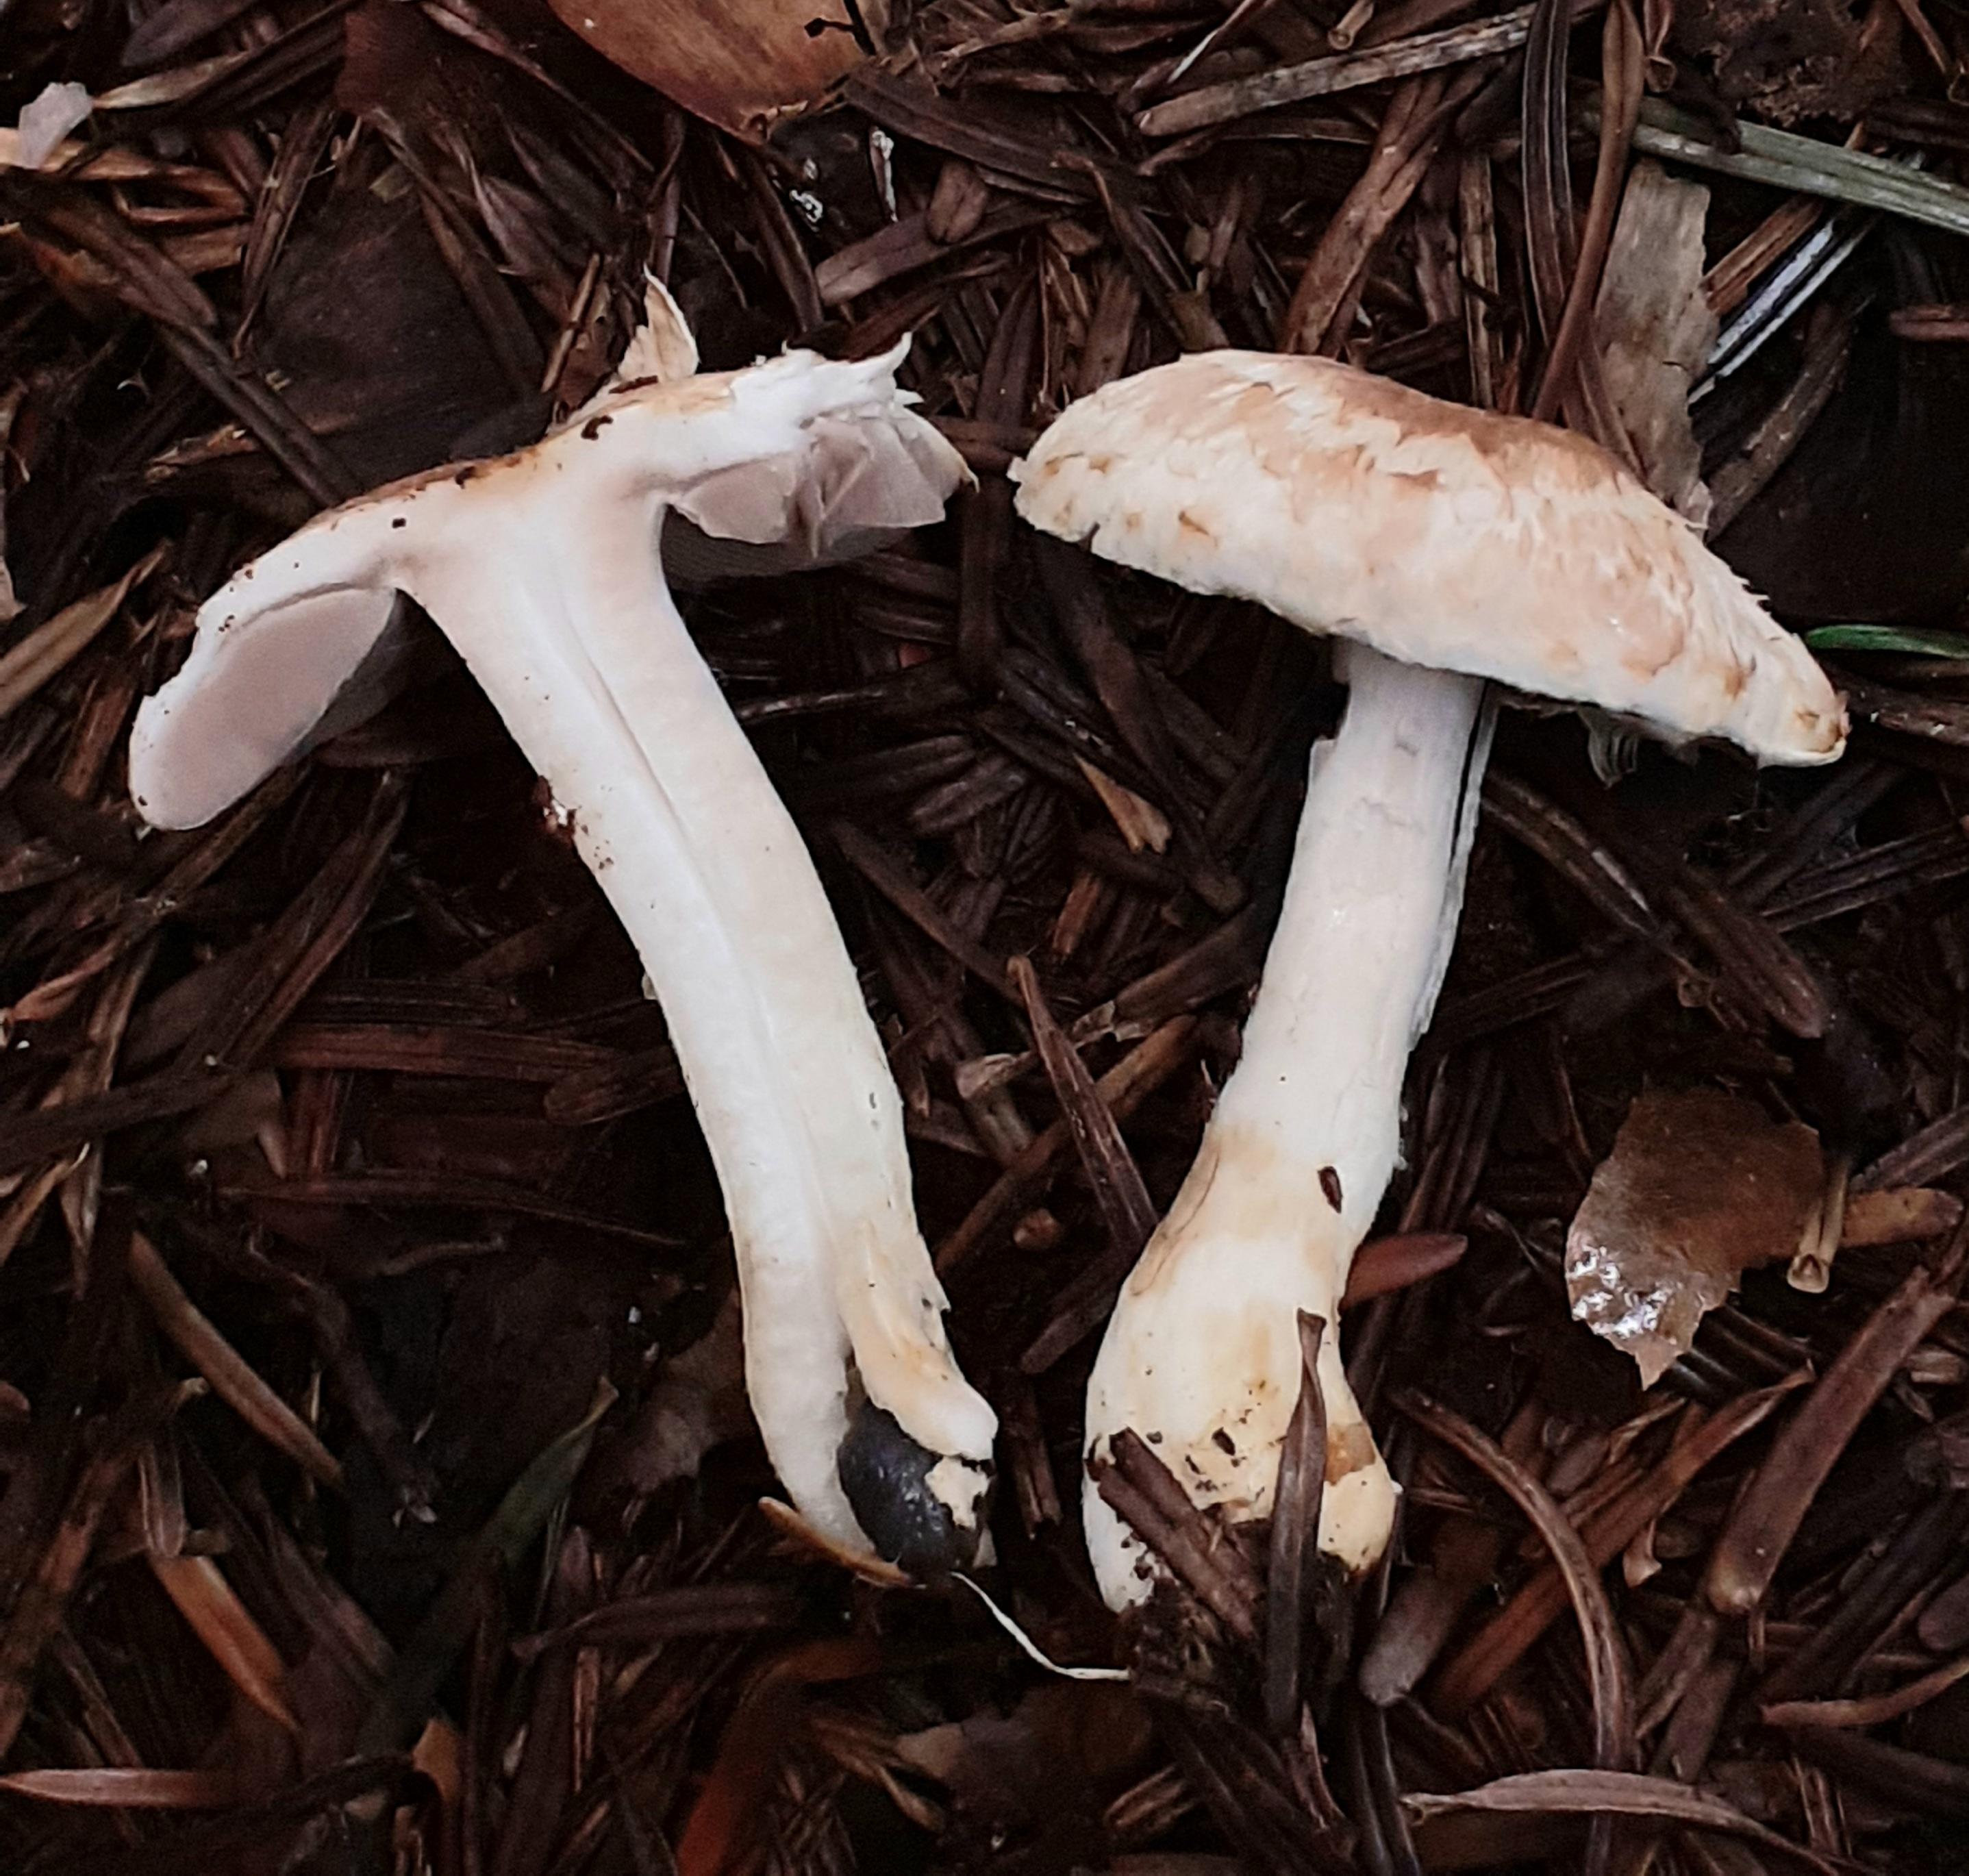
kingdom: Fungi
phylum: Basidiomycota
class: Agaricomycetes
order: Agaricales
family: Agaricaceae
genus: Agaricus
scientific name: Agaricus dulcidulus
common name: blegrød champignon
